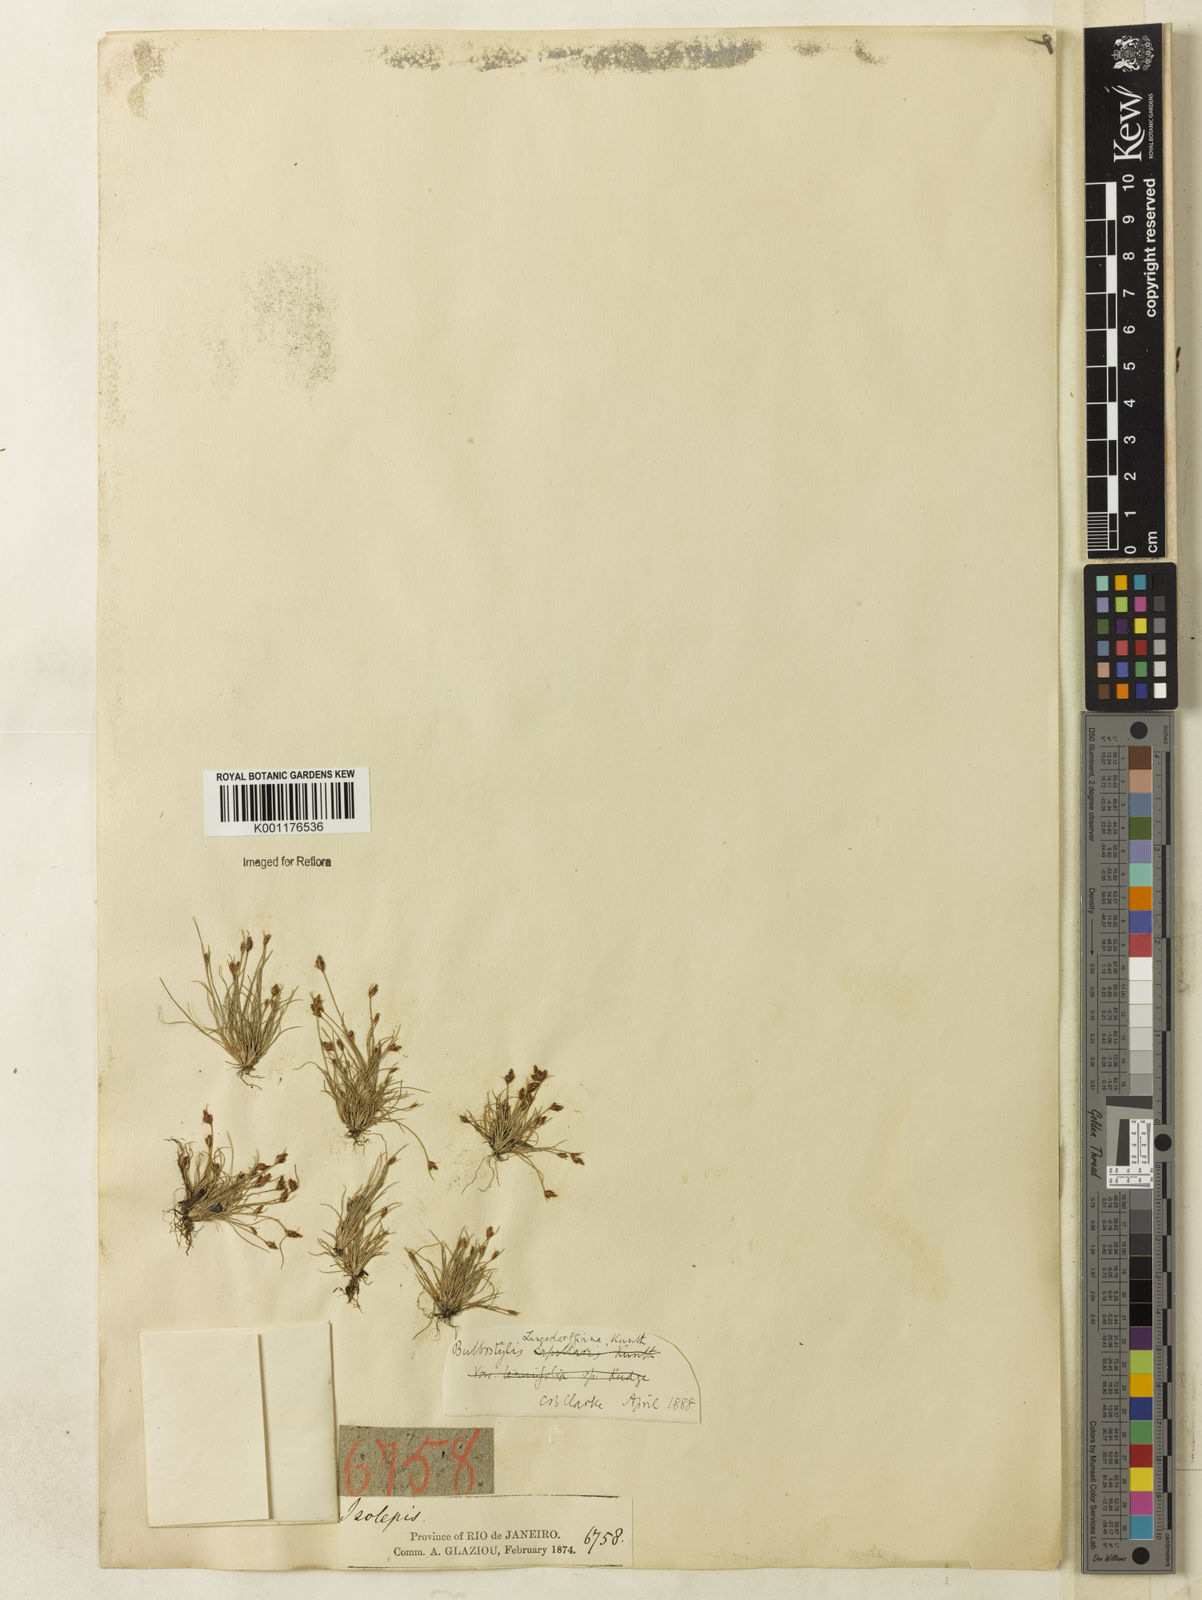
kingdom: Plantae
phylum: Tracheophyta
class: Liliopsida
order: Poales
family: Cyperaceae
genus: Bulbostylis
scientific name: Bulbostylis juncoides
